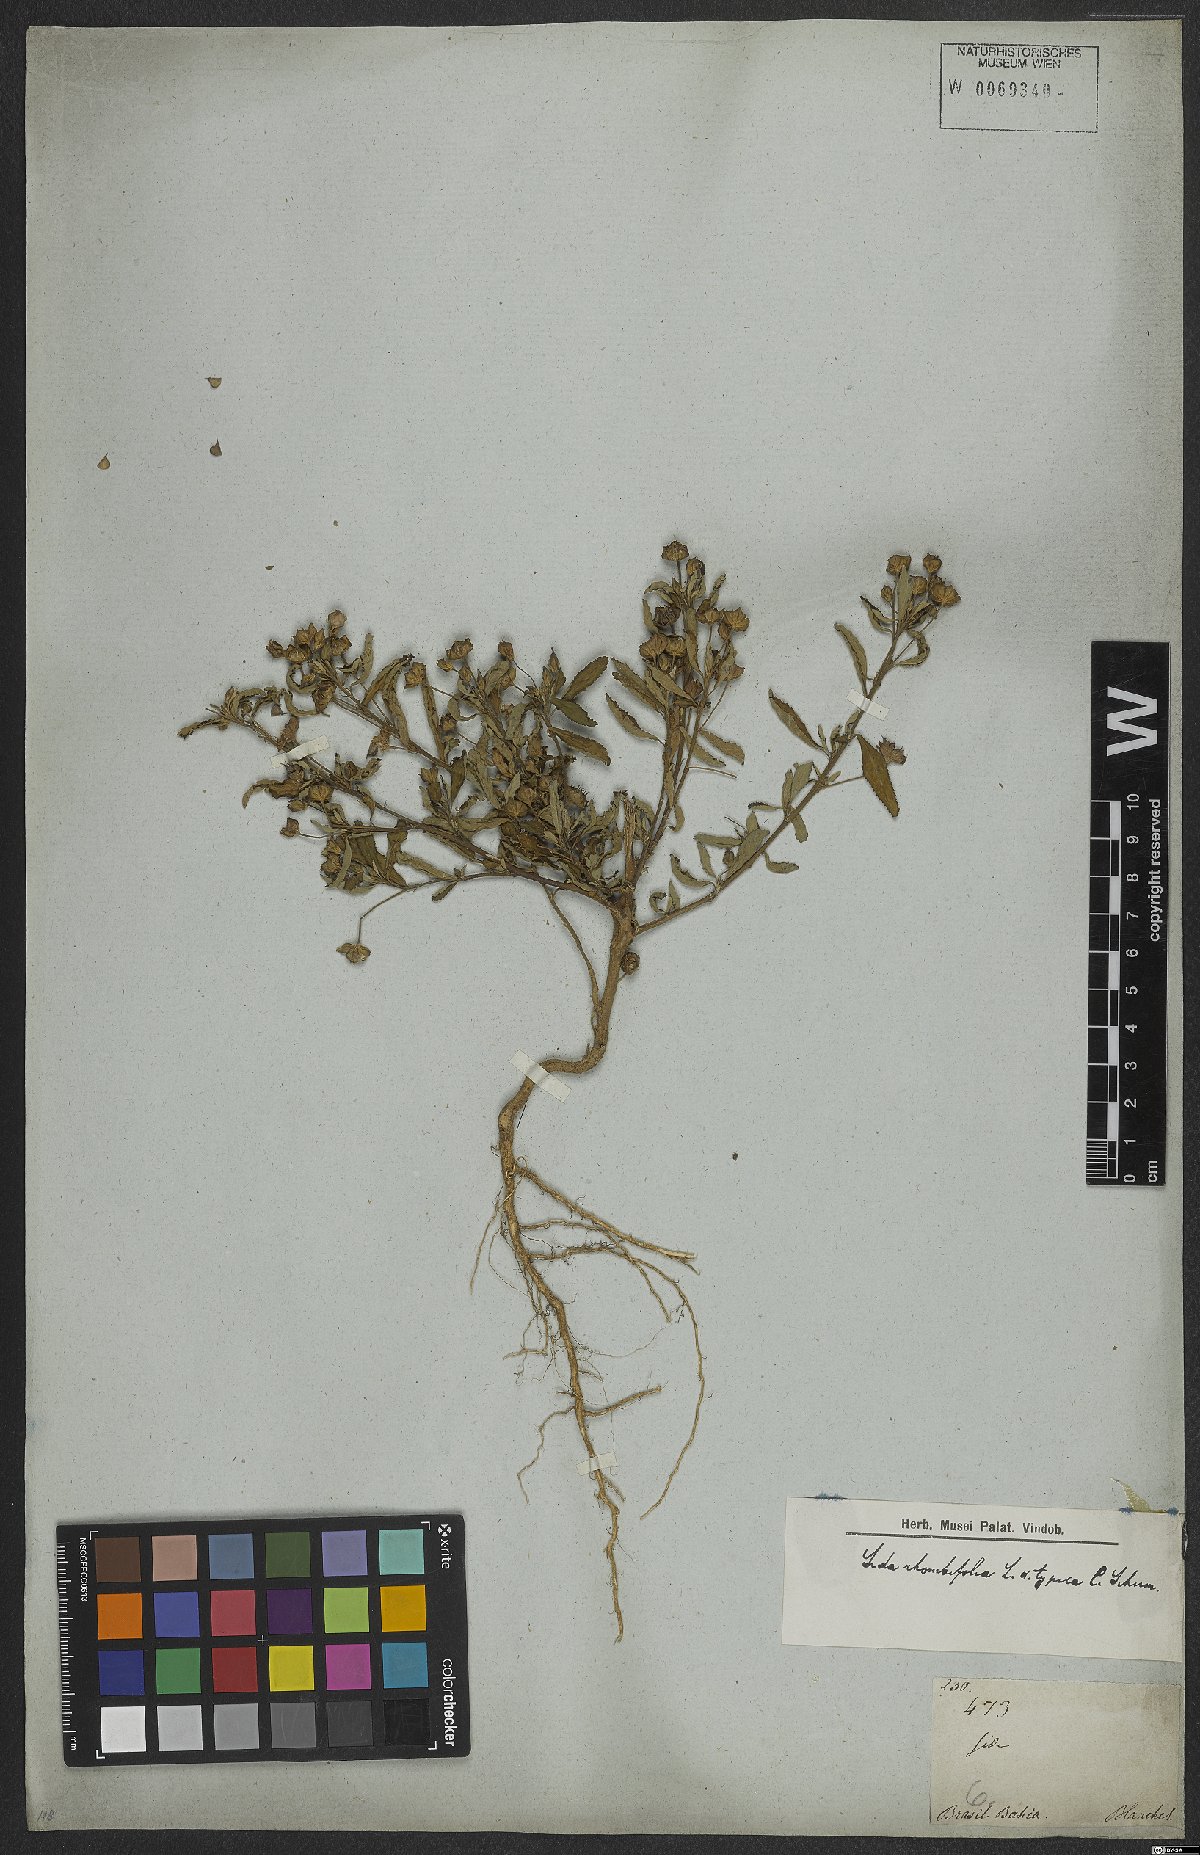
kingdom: Plantae
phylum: Tracheophyta
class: Magnoliopsida
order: Malvales
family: Malvaceae
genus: Sida
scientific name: Sida rhombifolia
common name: Queensland-hemp
